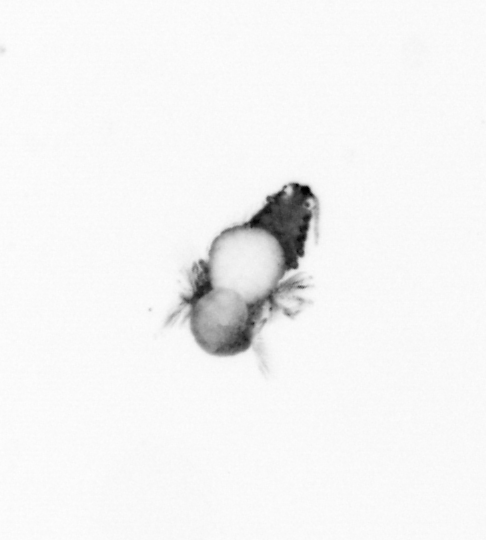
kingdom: Animalia
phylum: Annelida
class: Polychaeta
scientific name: Polychaeta
